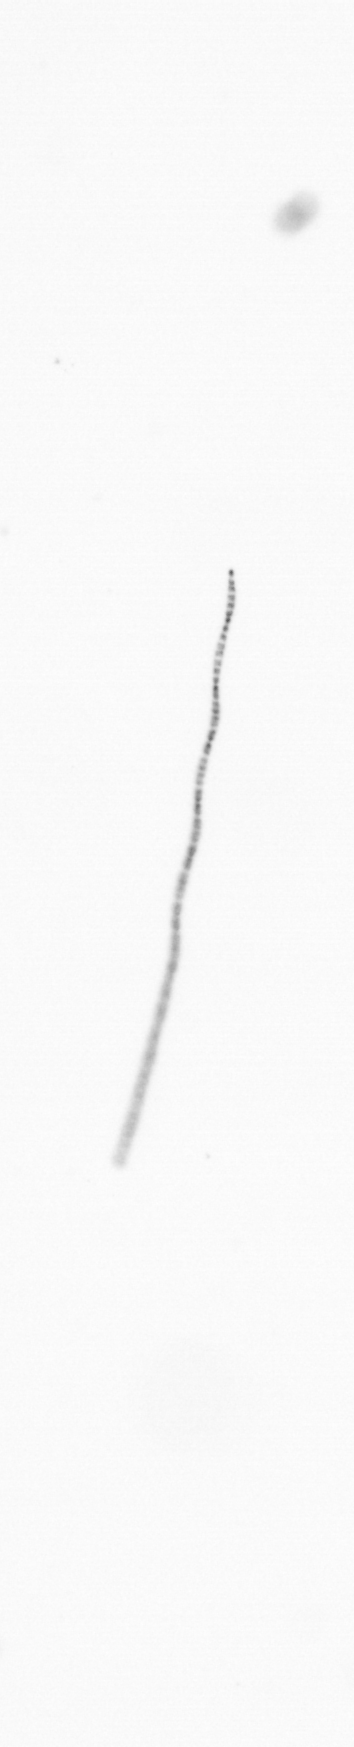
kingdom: Chromista
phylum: Ochrophyta
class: Bacillariophyceae
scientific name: Bacillariophyceae
